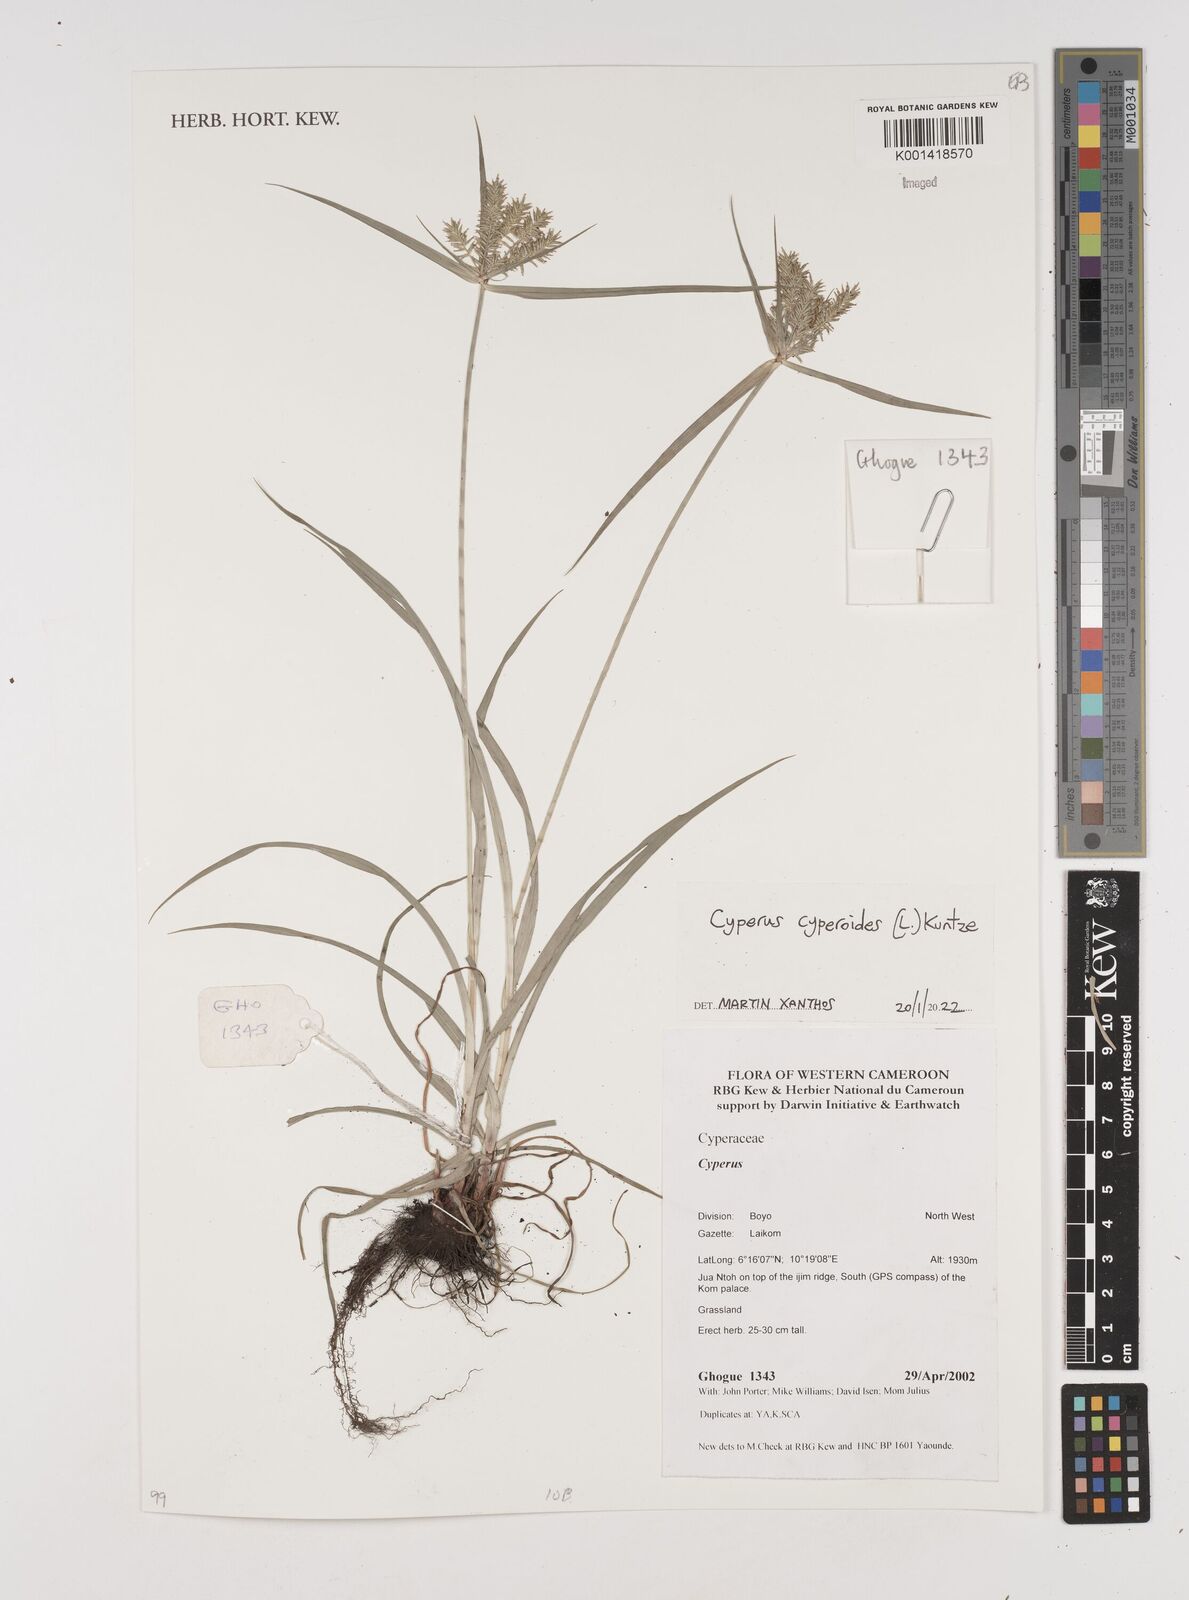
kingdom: Plantae
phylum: Tracheophyta
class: Liliopsida
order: Poales
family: Cyperaceae
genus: Carex
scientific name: Carex bohemica
